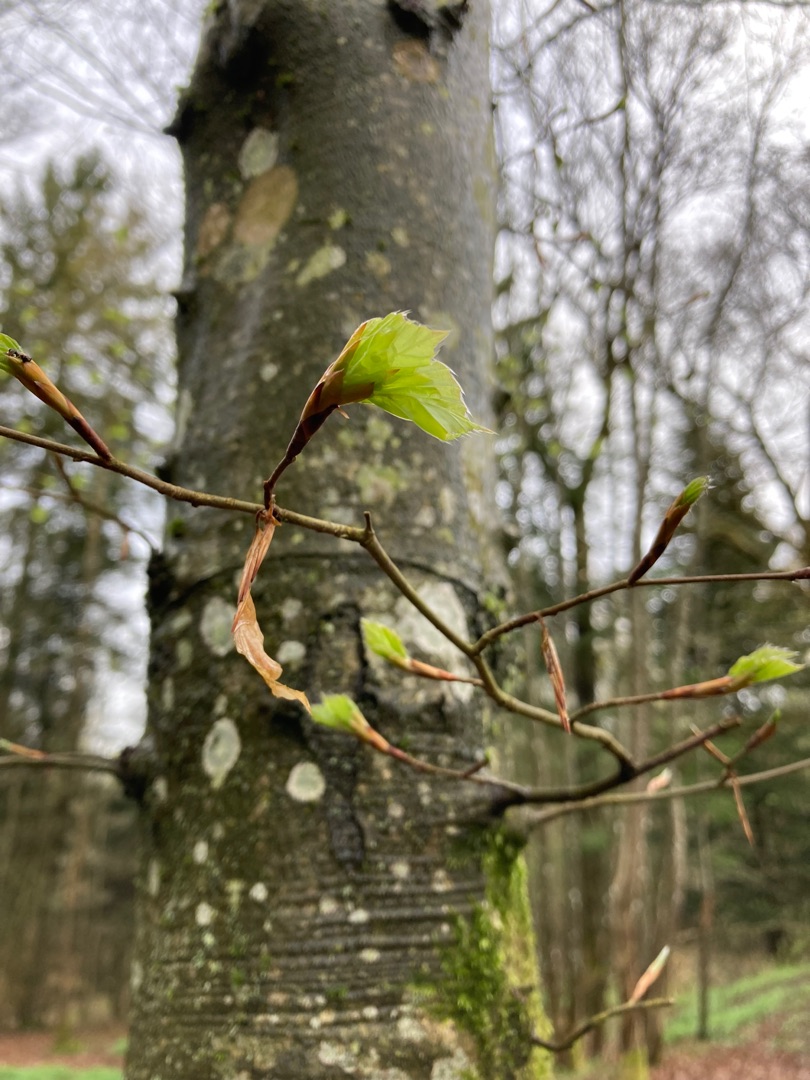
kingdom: Plantae
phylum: Tracheophyta
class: Magnoliopsida
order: Fagales
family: Fagaceae
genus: Fagus
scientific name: Fagus sylvatica
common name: Bøg
